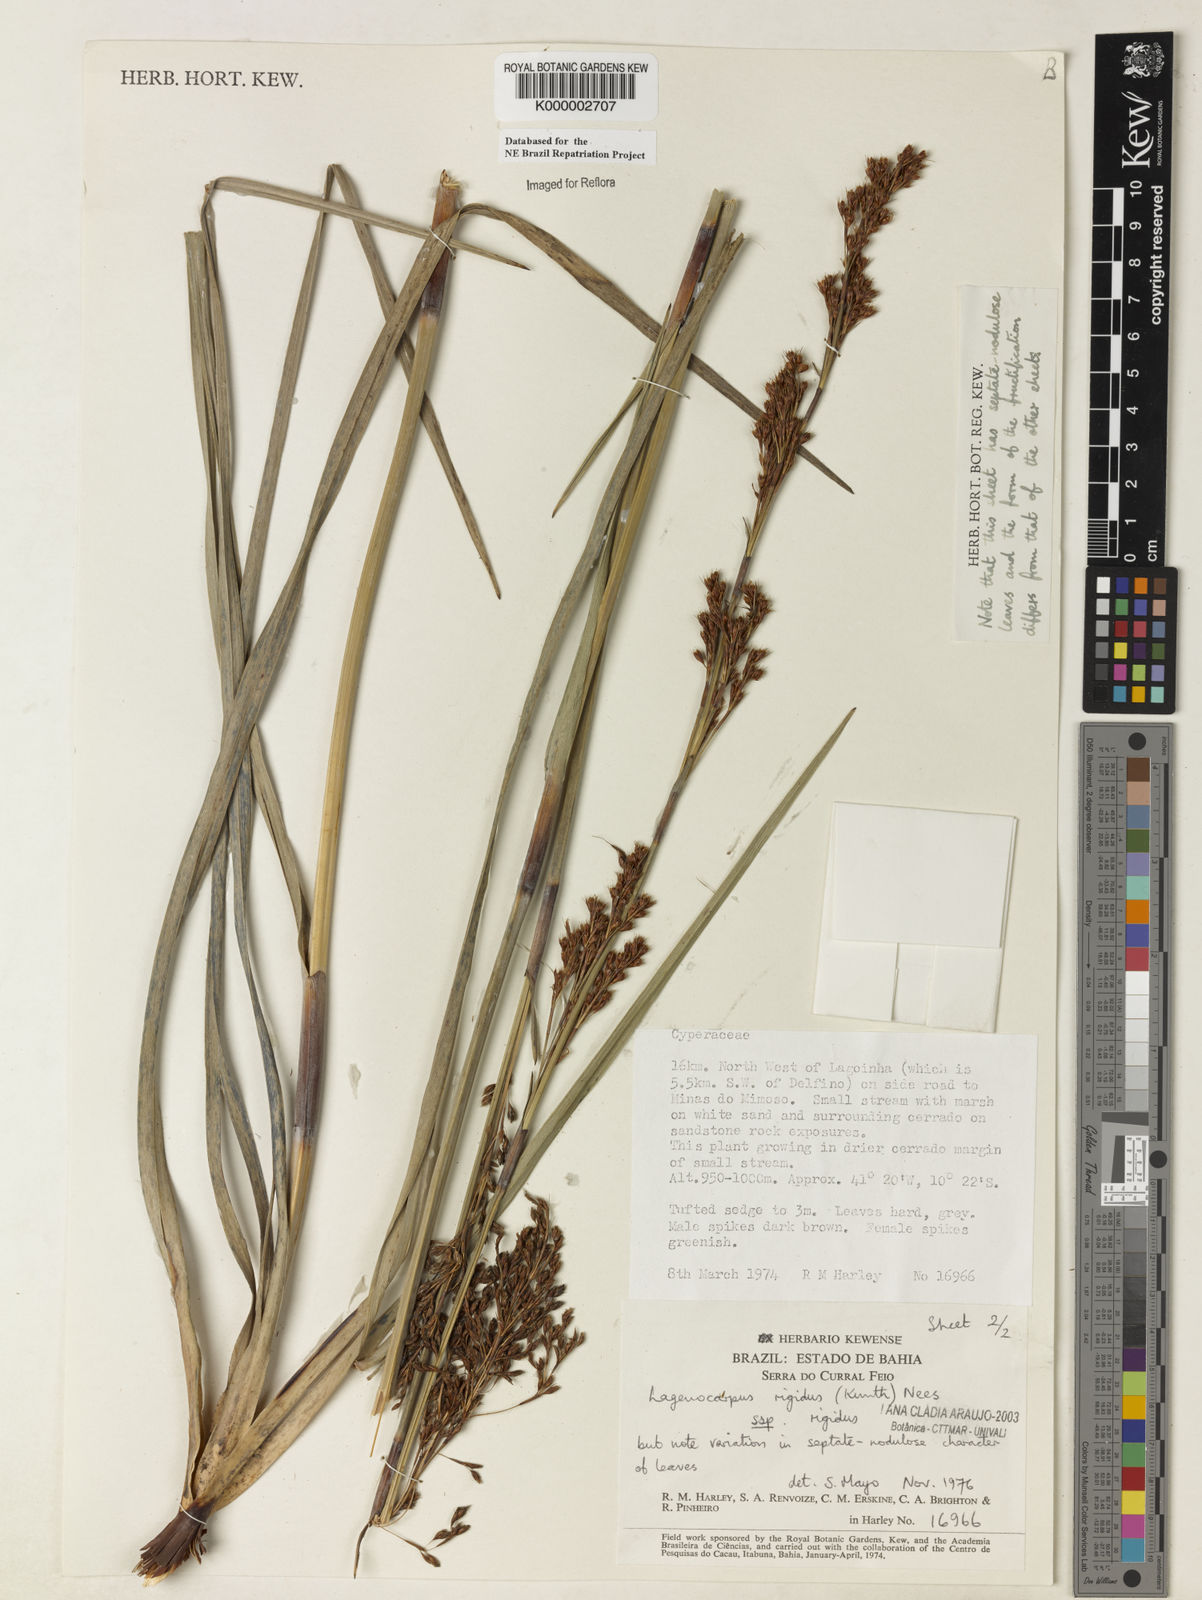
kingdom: Plantae
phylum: Tracheophyta
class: Liliopsida
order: Poales
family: Cyperaceae
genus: Lagenocarpus
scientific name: Lagenocarpus rigidus
